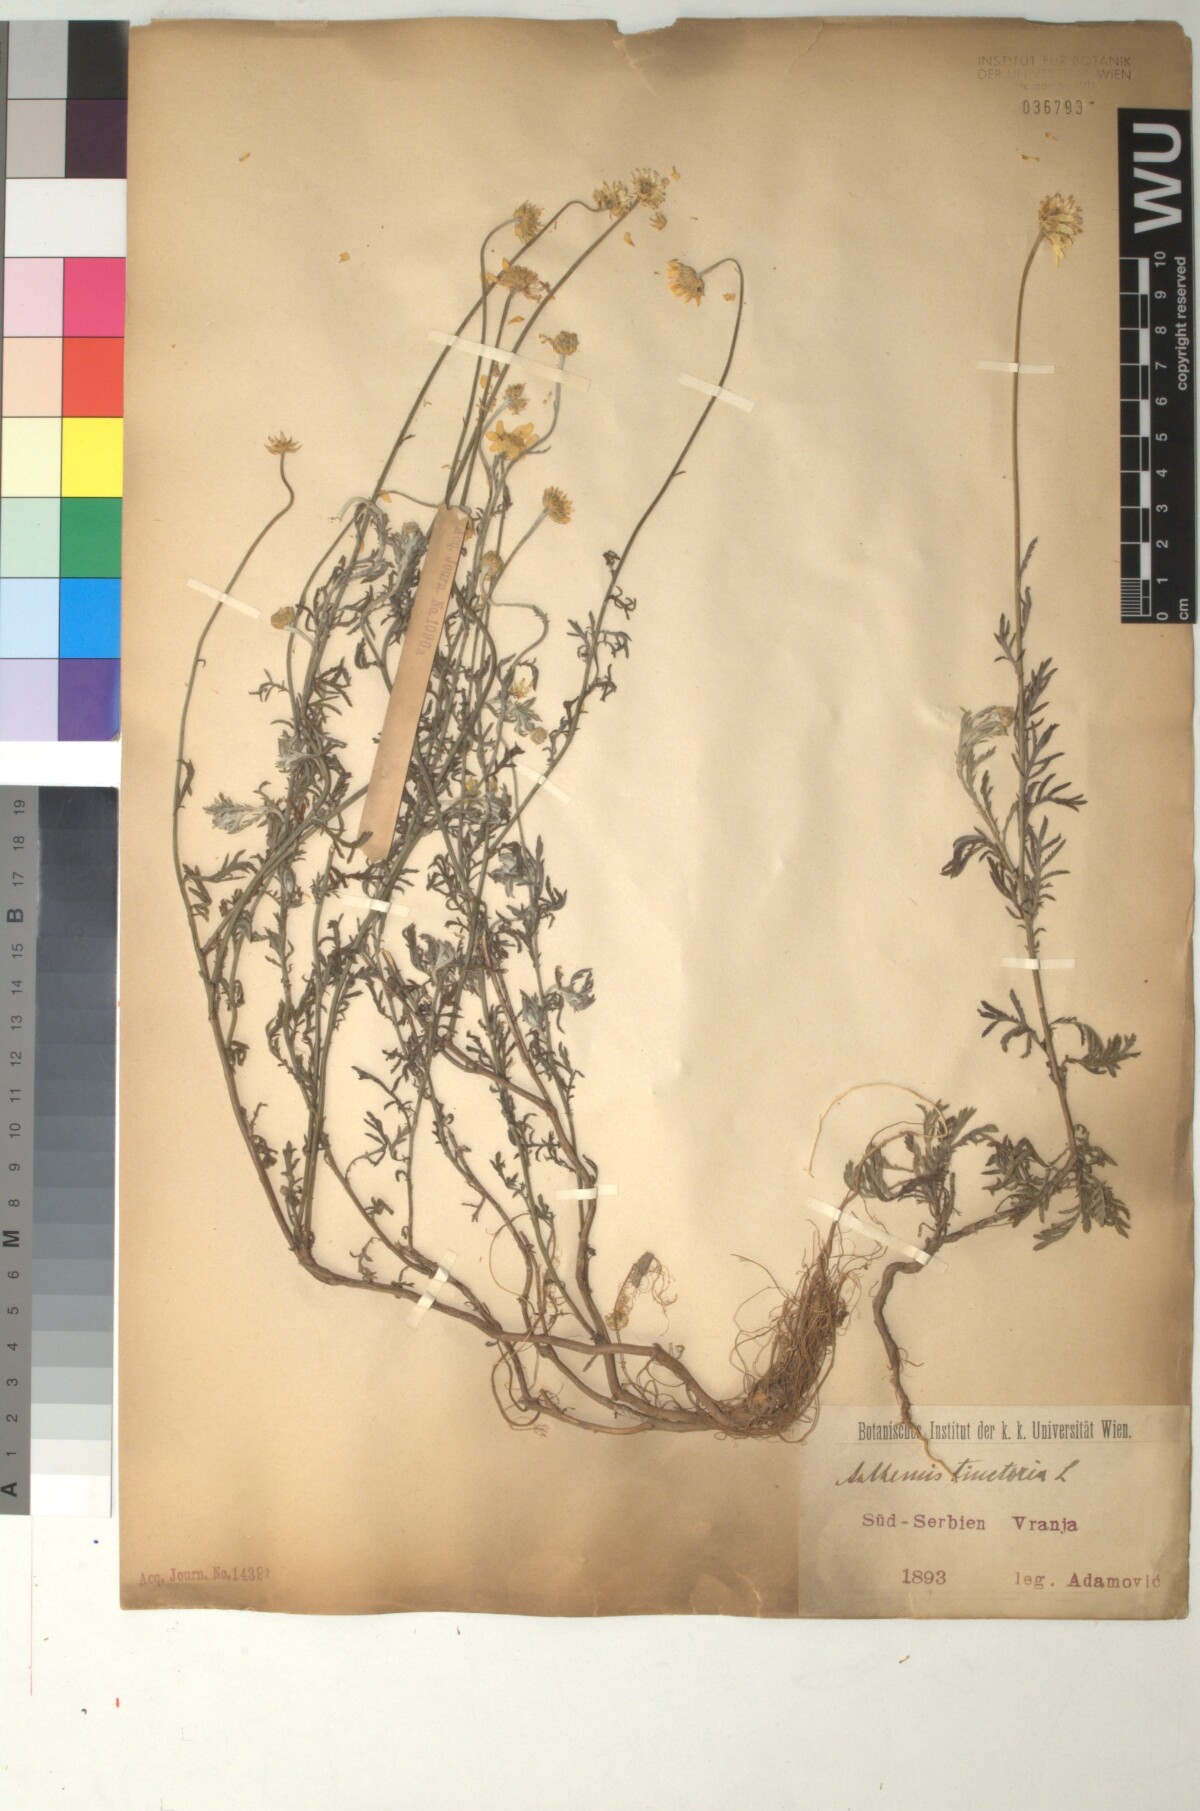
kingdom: Plantae
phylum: Tracheophyta
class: Magnoliopsida
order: Asterales
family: Asteraceae
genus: Cota
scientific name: Cota tinctoria
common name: Golden chamomile
